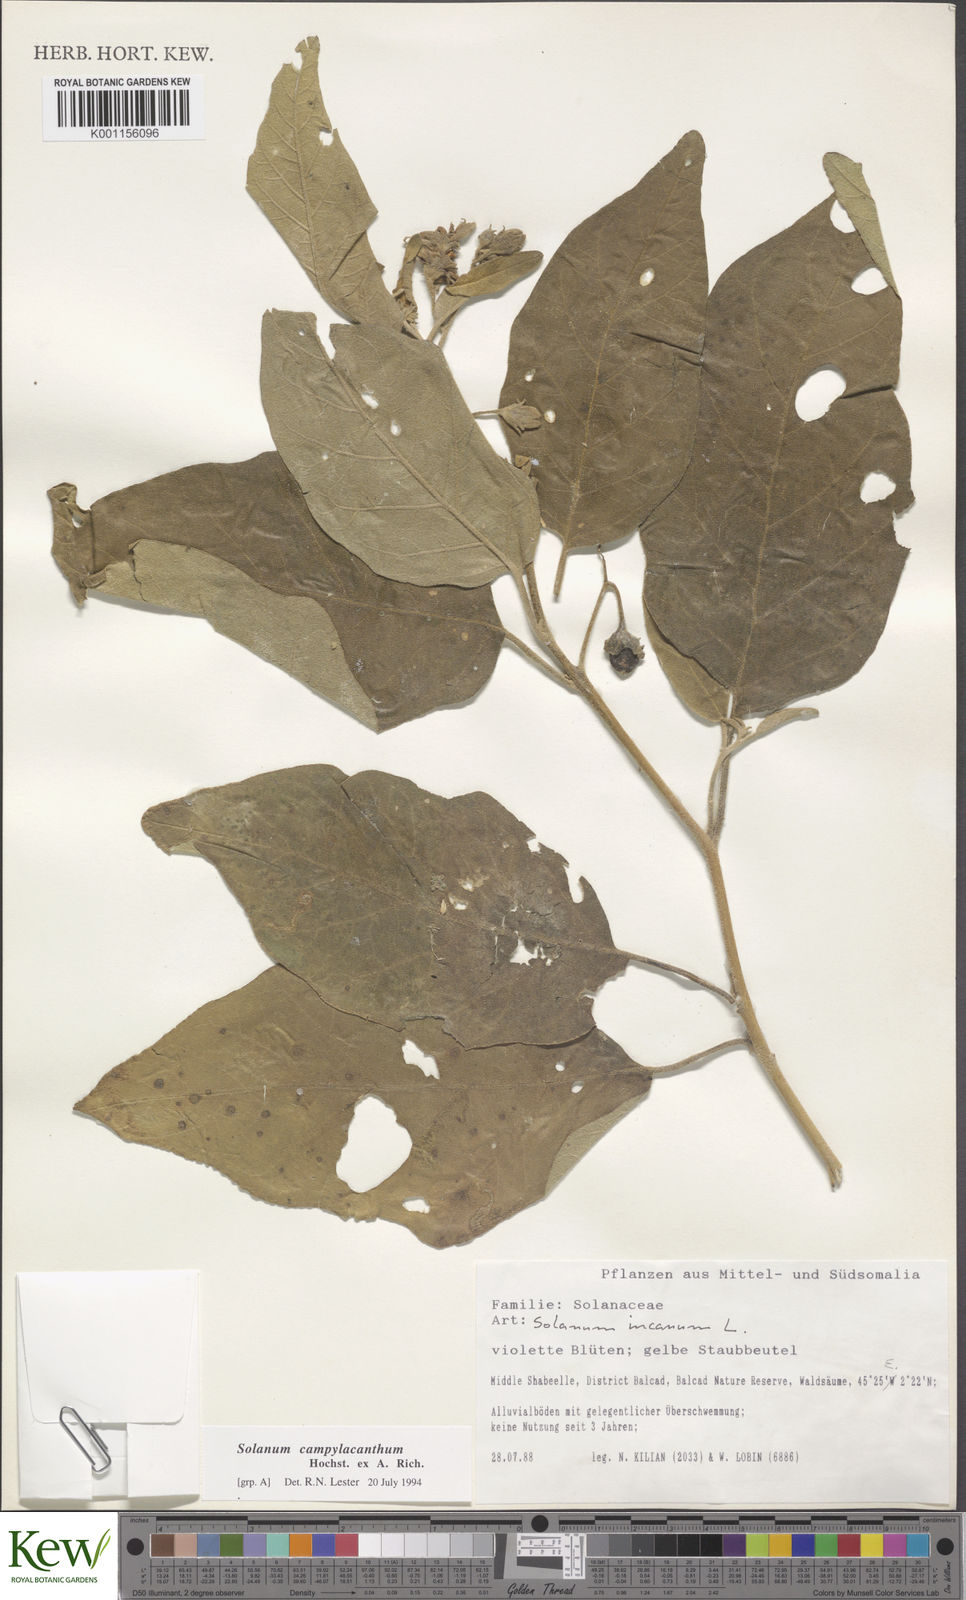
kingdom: Plantae
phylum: Tracheophyta
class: Magnoliopsida
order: Solanales
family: Solanaceae
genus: Solanum
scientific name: Solanum campylacanthum
